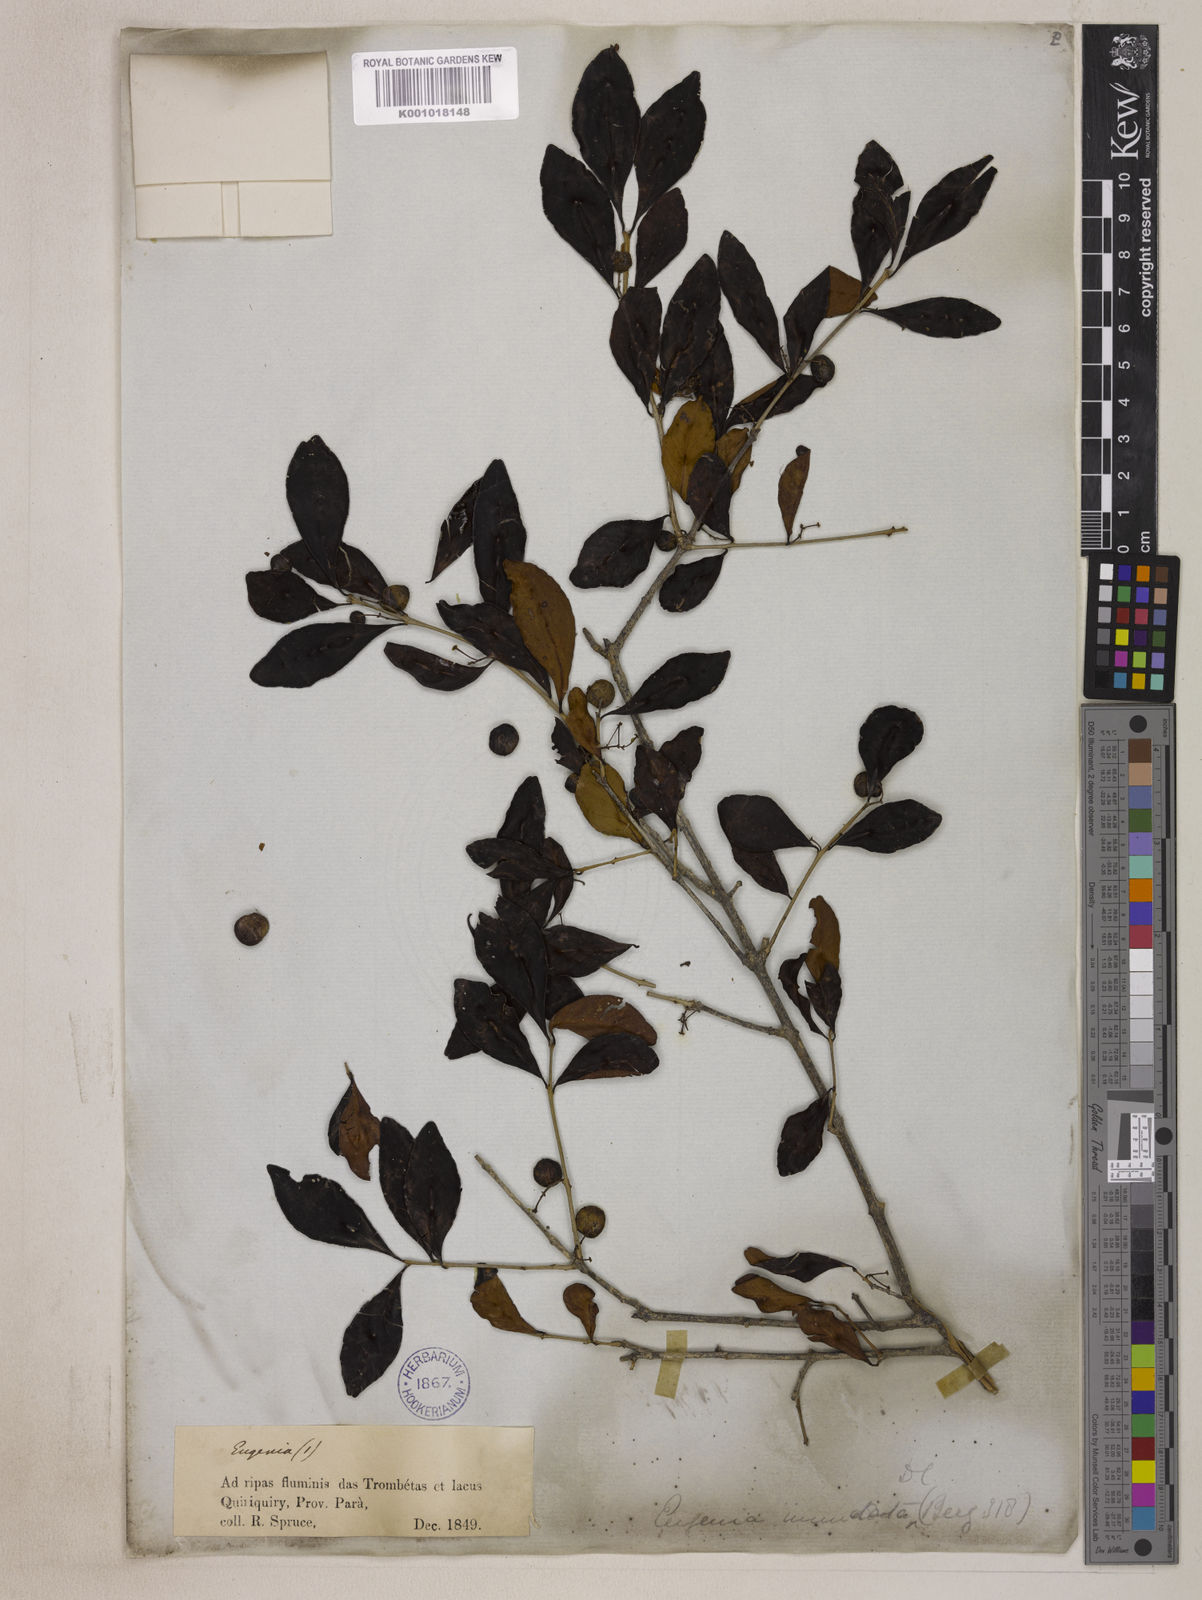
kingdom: Plantae
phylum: Tracheophyta
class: Magnoliopsida
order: Myrtales
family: Myrtaceae
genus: Eugenia
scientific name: Eugenia inundata
